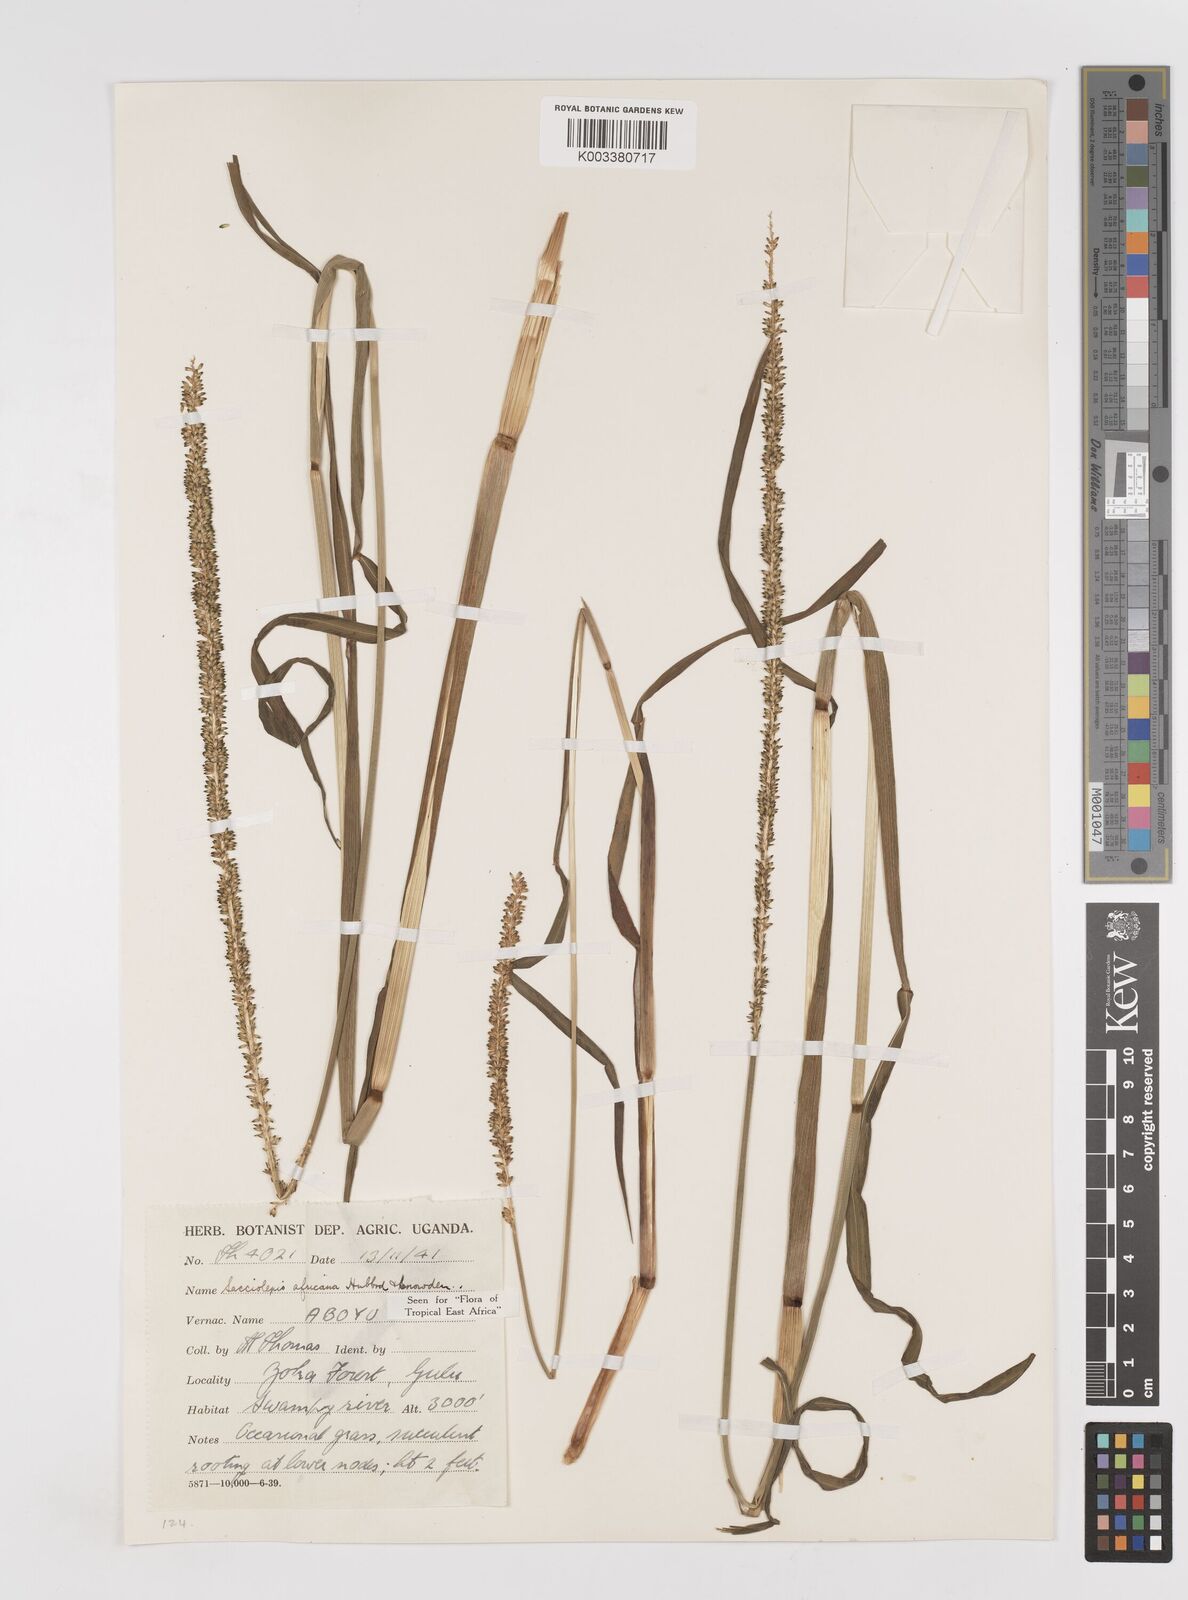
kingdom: Plantae
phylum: Tracheophyta
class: Liliopsida
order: Poales
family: Poaceae
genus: Sacciolepis
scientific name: Sacciolepis africana
